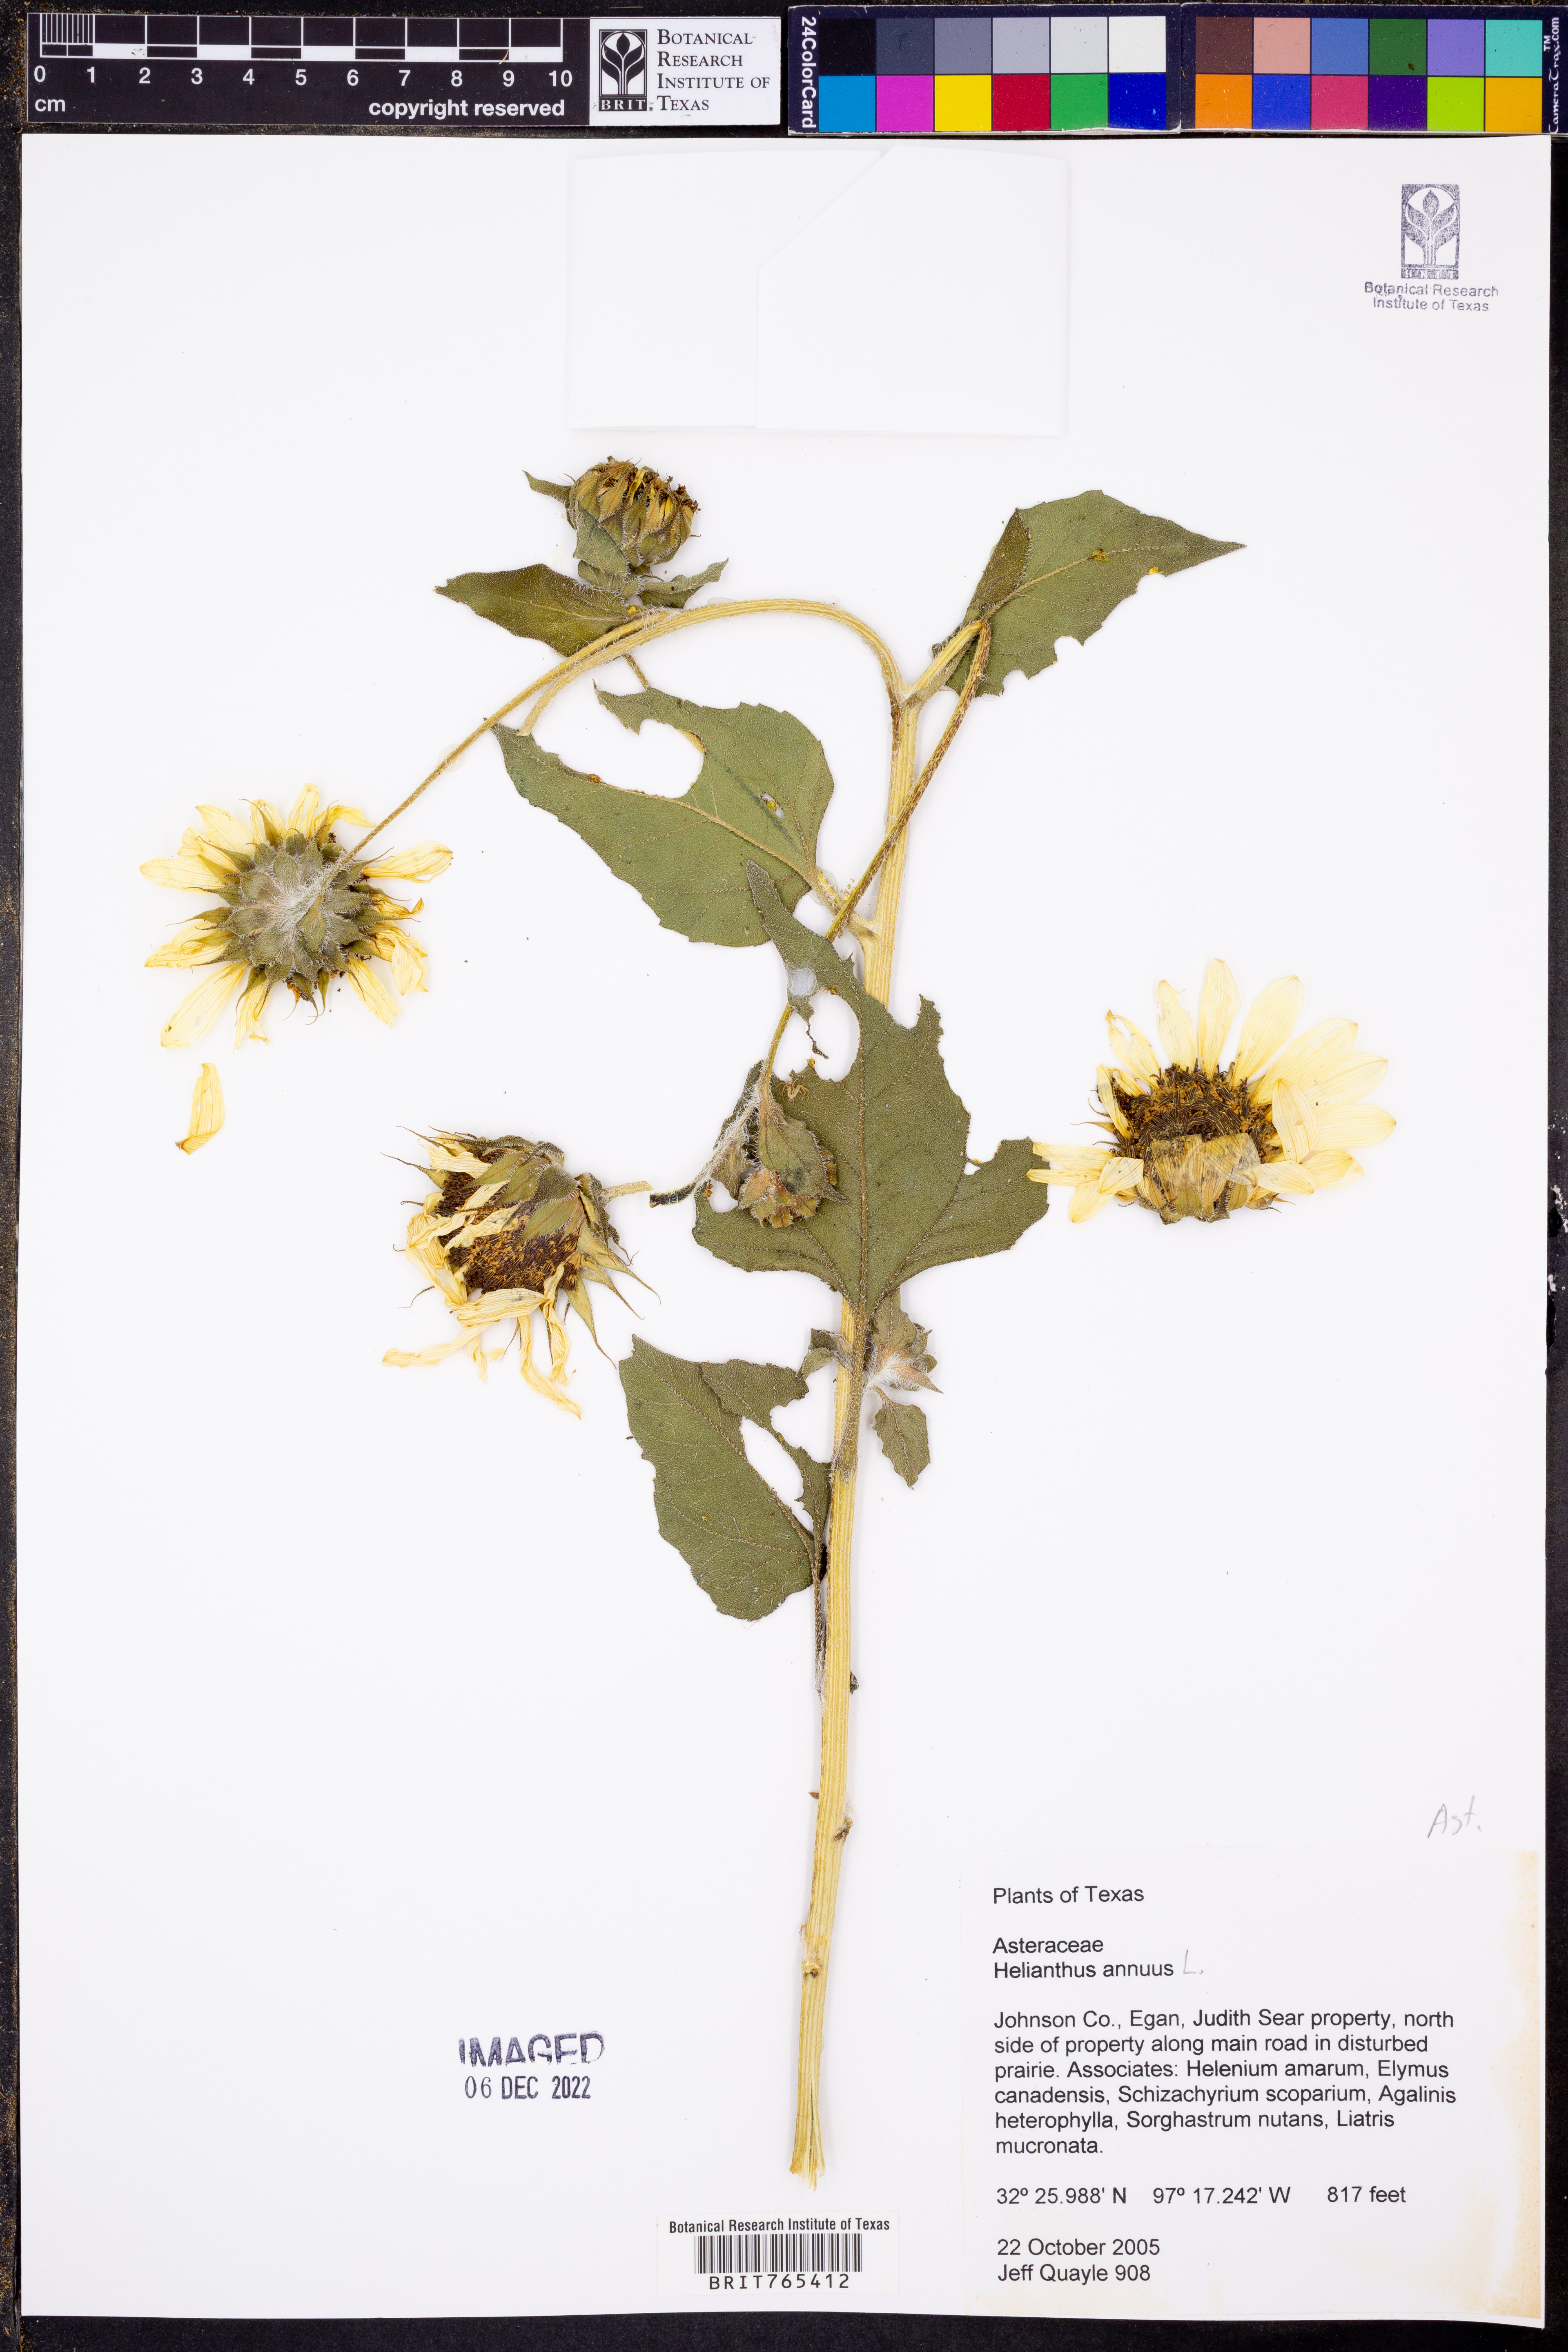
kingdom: Plantae
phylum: Tracheophyta
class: Magnoliopsida
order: Asterales
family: Asteraceae
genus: Helianthus
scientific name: Helianthus annuus
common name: Sunflower
